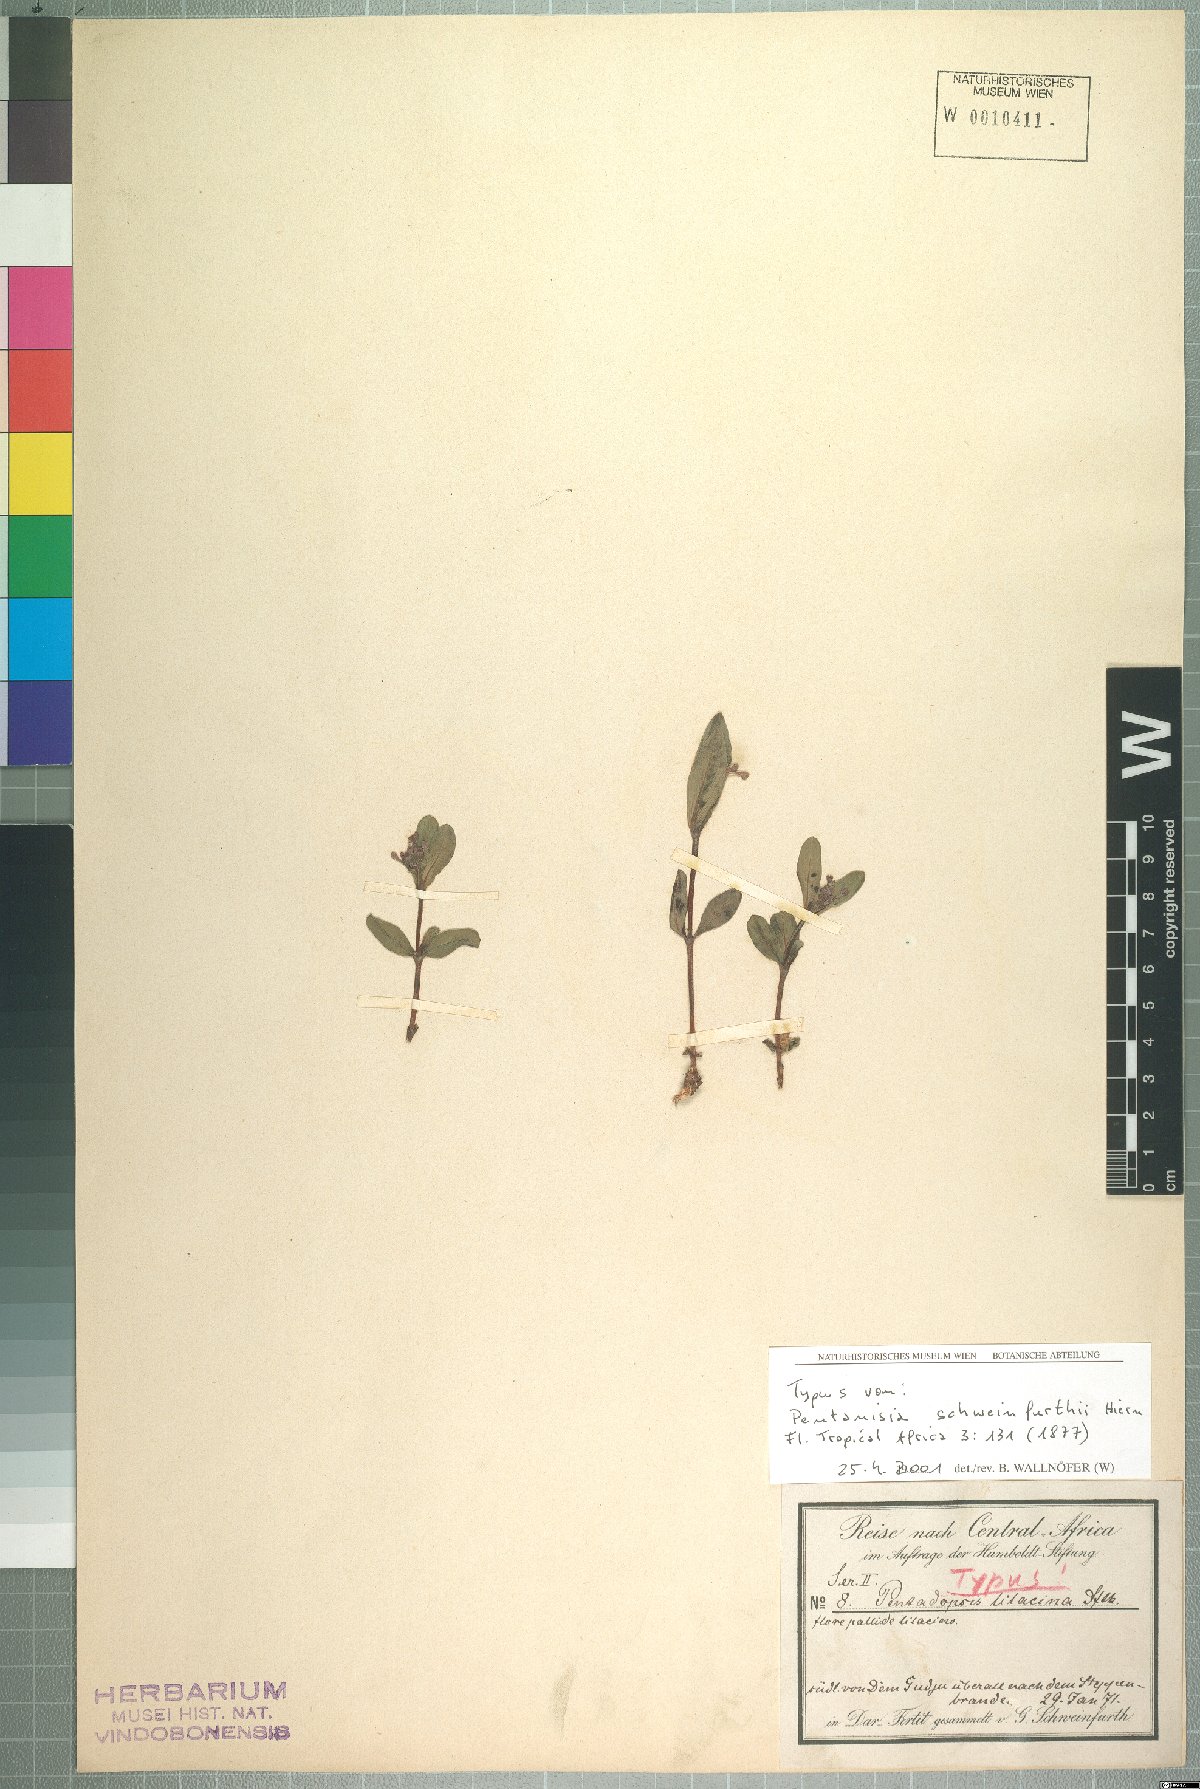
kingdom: Plantae
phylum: Tracheophyta
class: Magnoliopsida
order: Gentianales
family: Rubiaceae
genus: Pentanisia
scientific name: Pentanisia schweinfurthii
